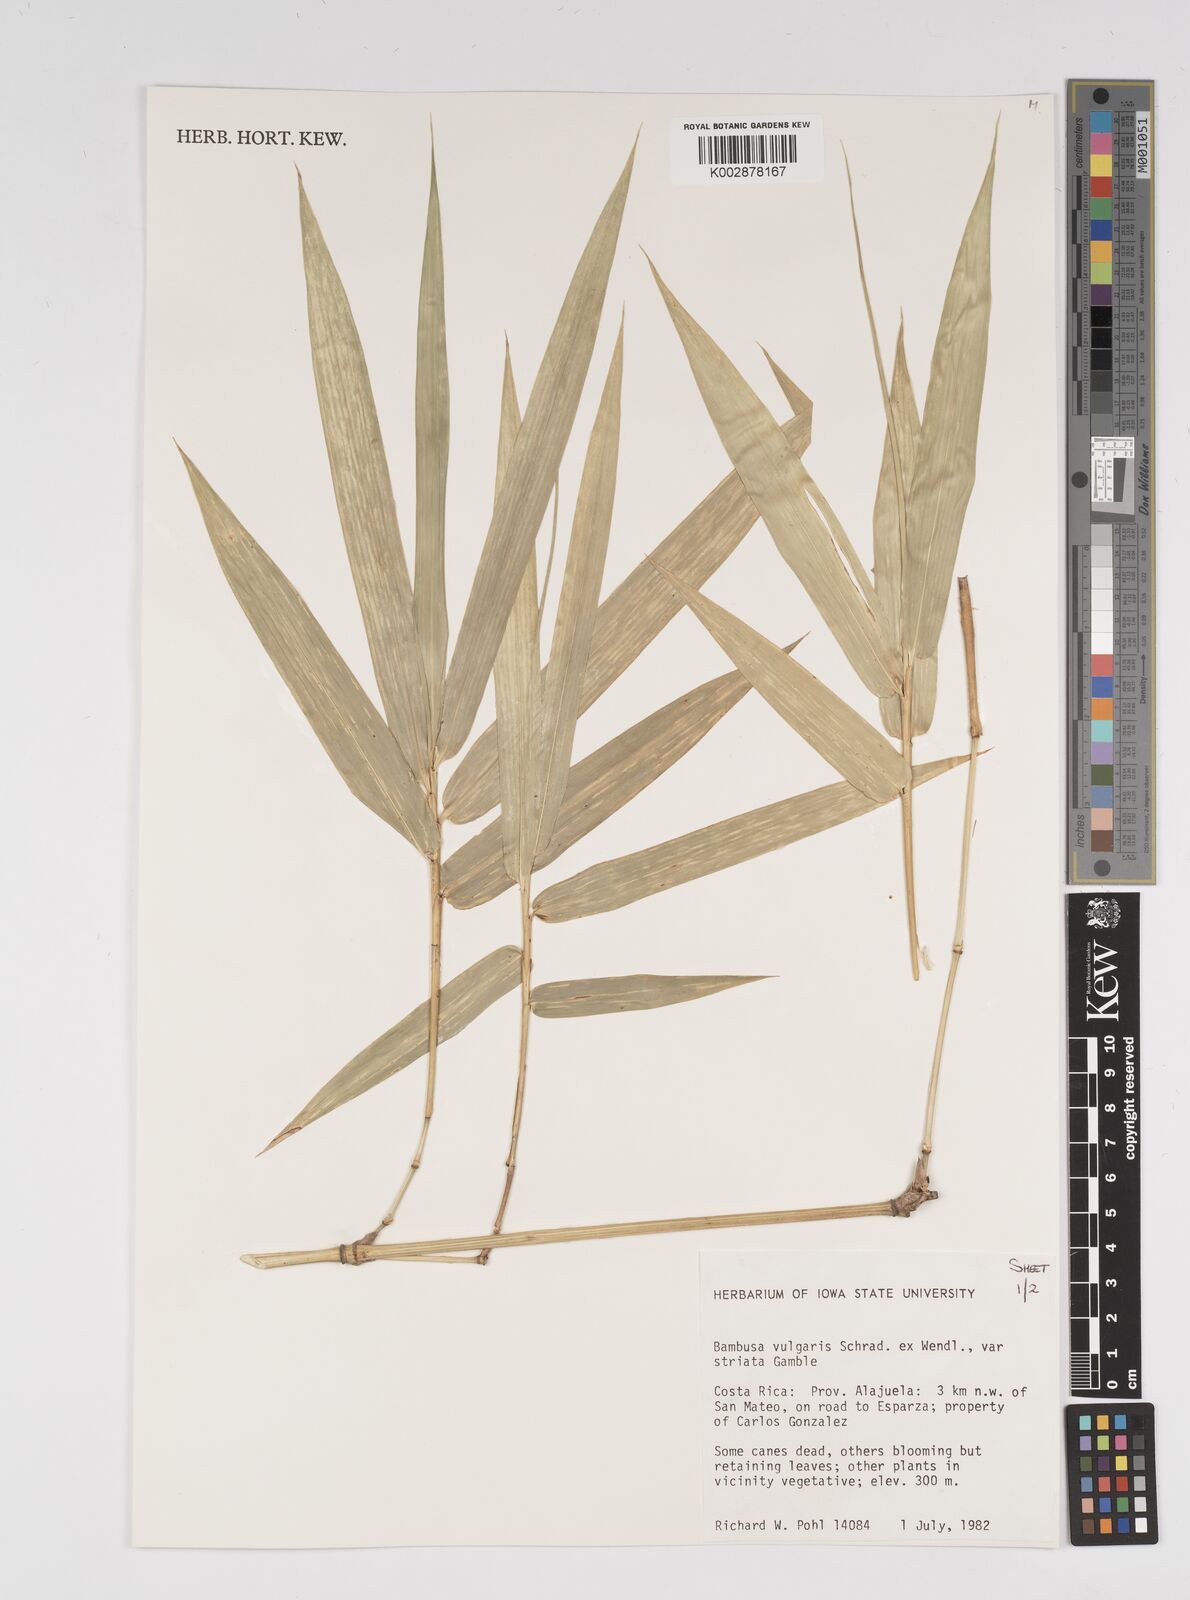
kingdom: Plantae
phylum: Tracheophyta
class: Liliopsida
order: Poales
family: Poaceae
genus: Bambusa
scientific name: Bambusa
